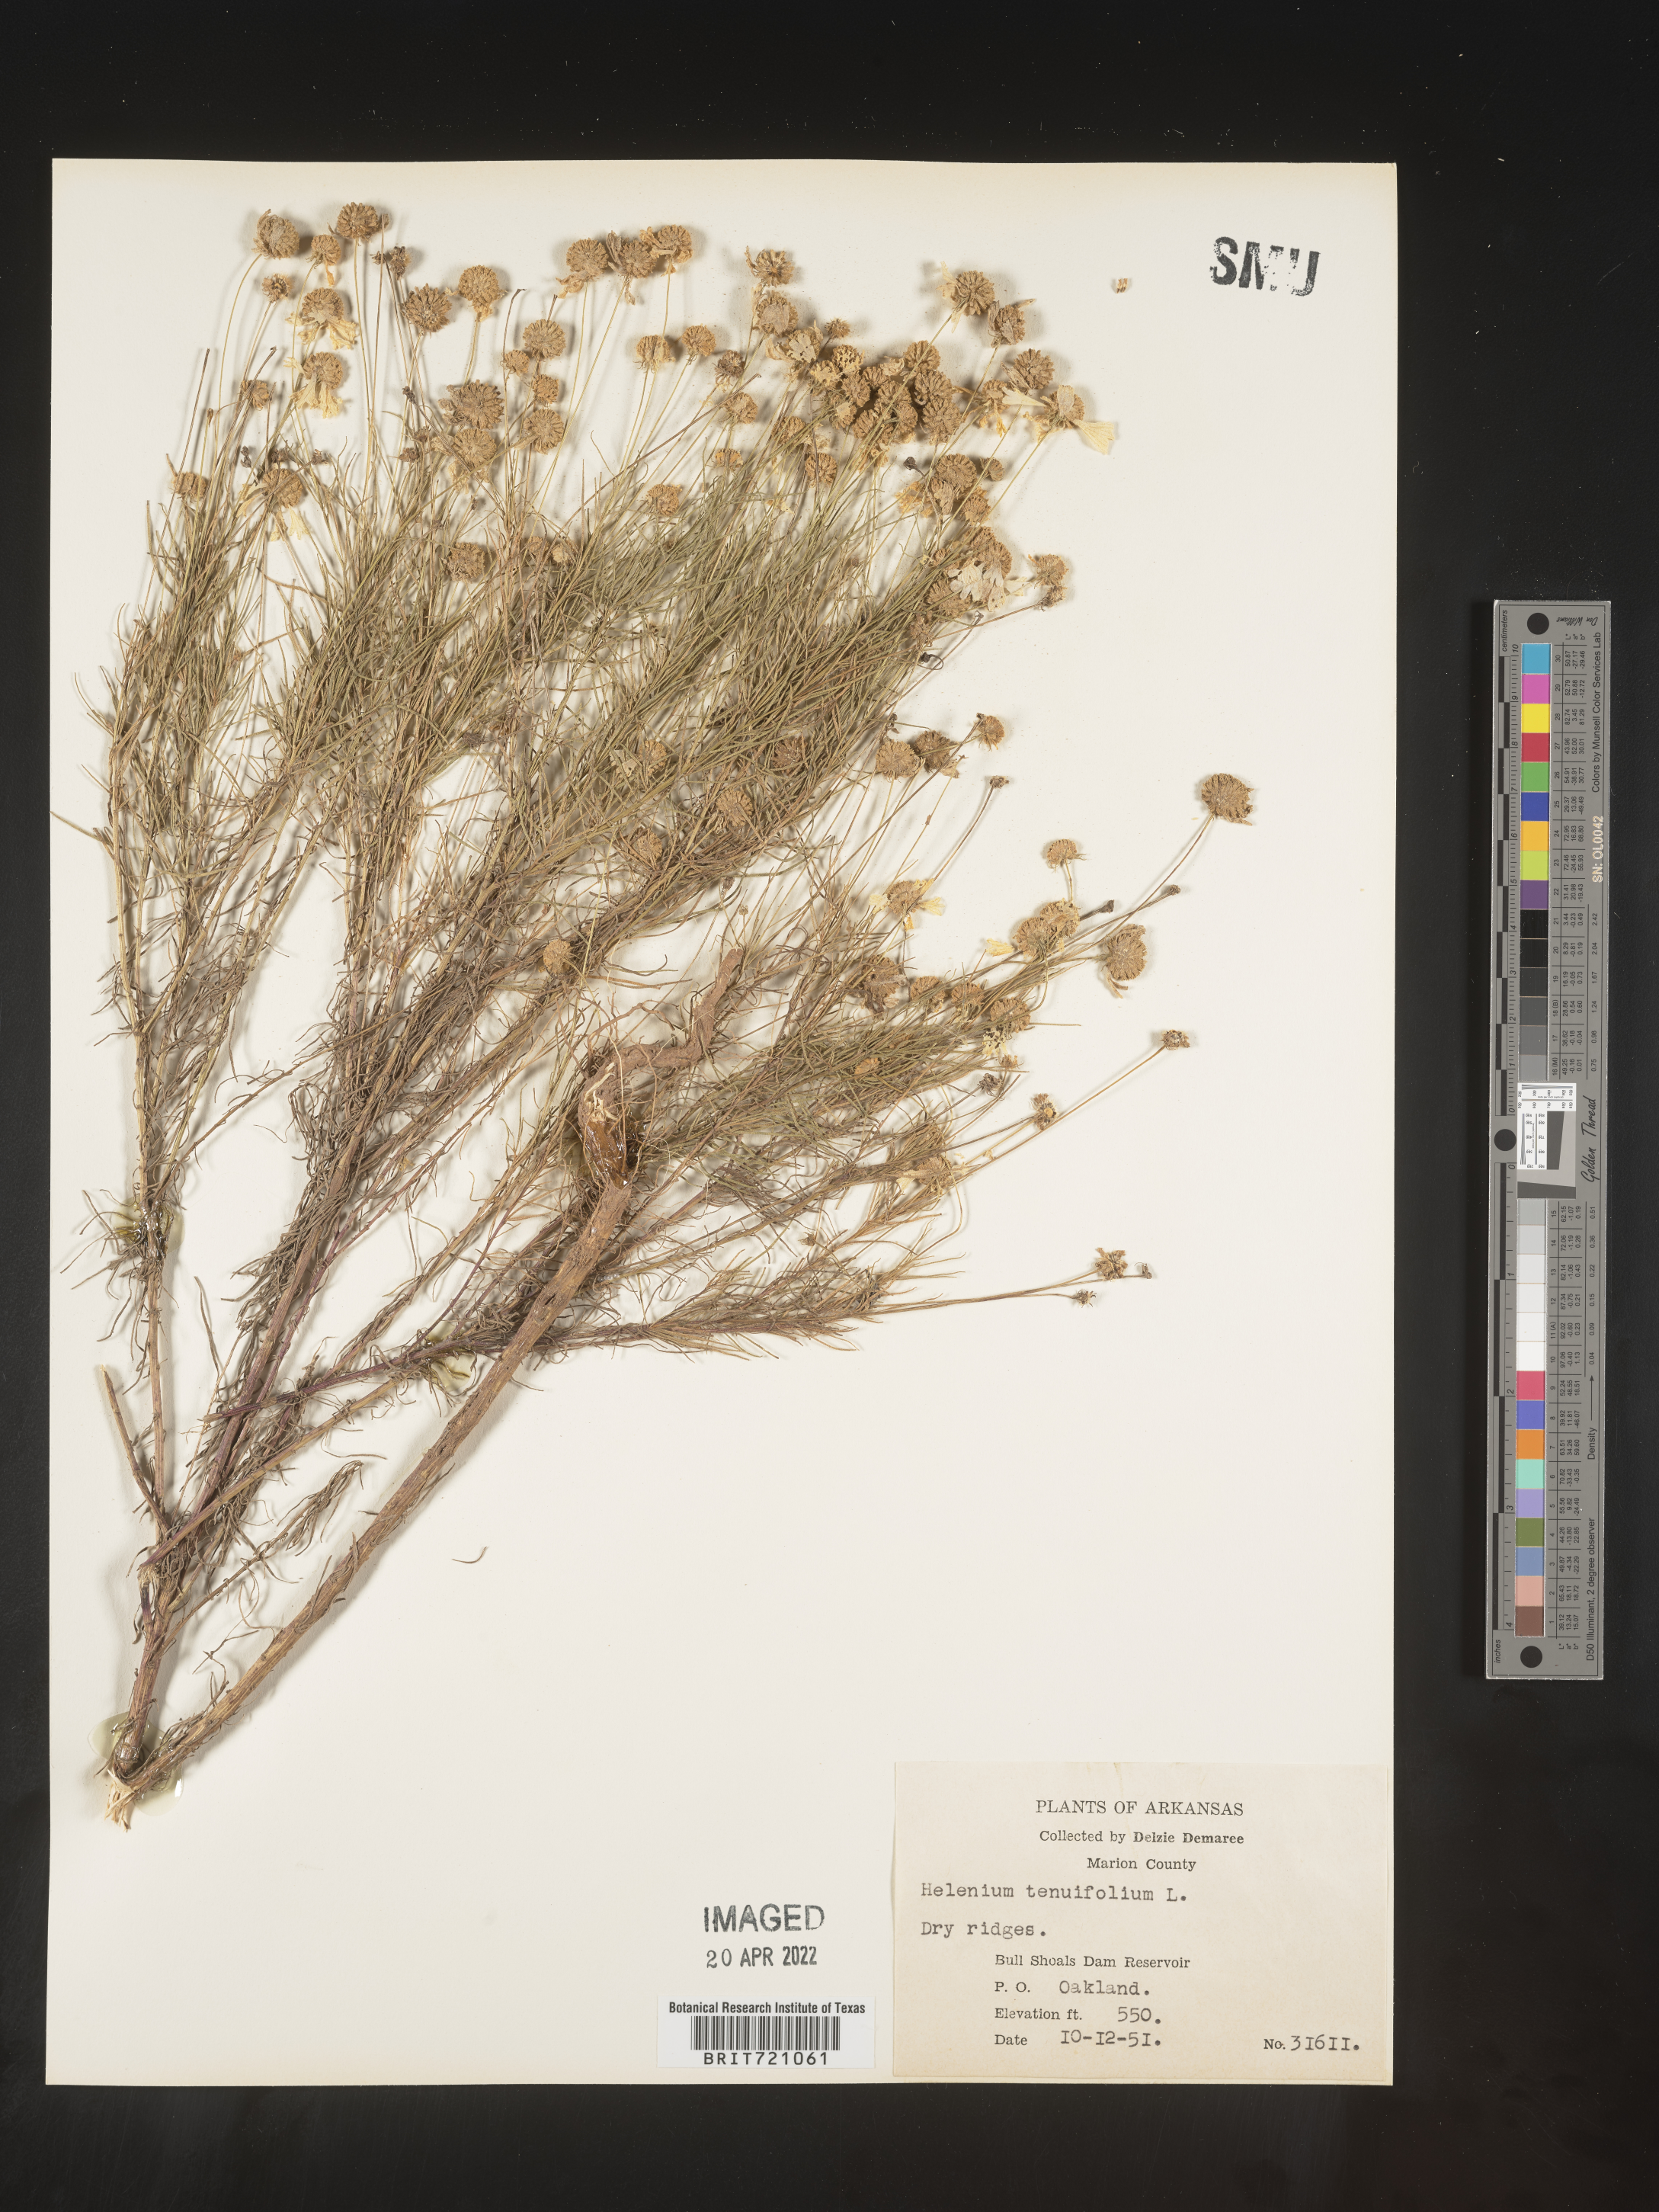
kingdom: Plantae
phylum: Tracheophyta
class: Magnoliopsida
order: Asterales
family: Asteraceae
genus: Helenium
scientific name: Helenium amarum
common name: Bitter sneezeweed
